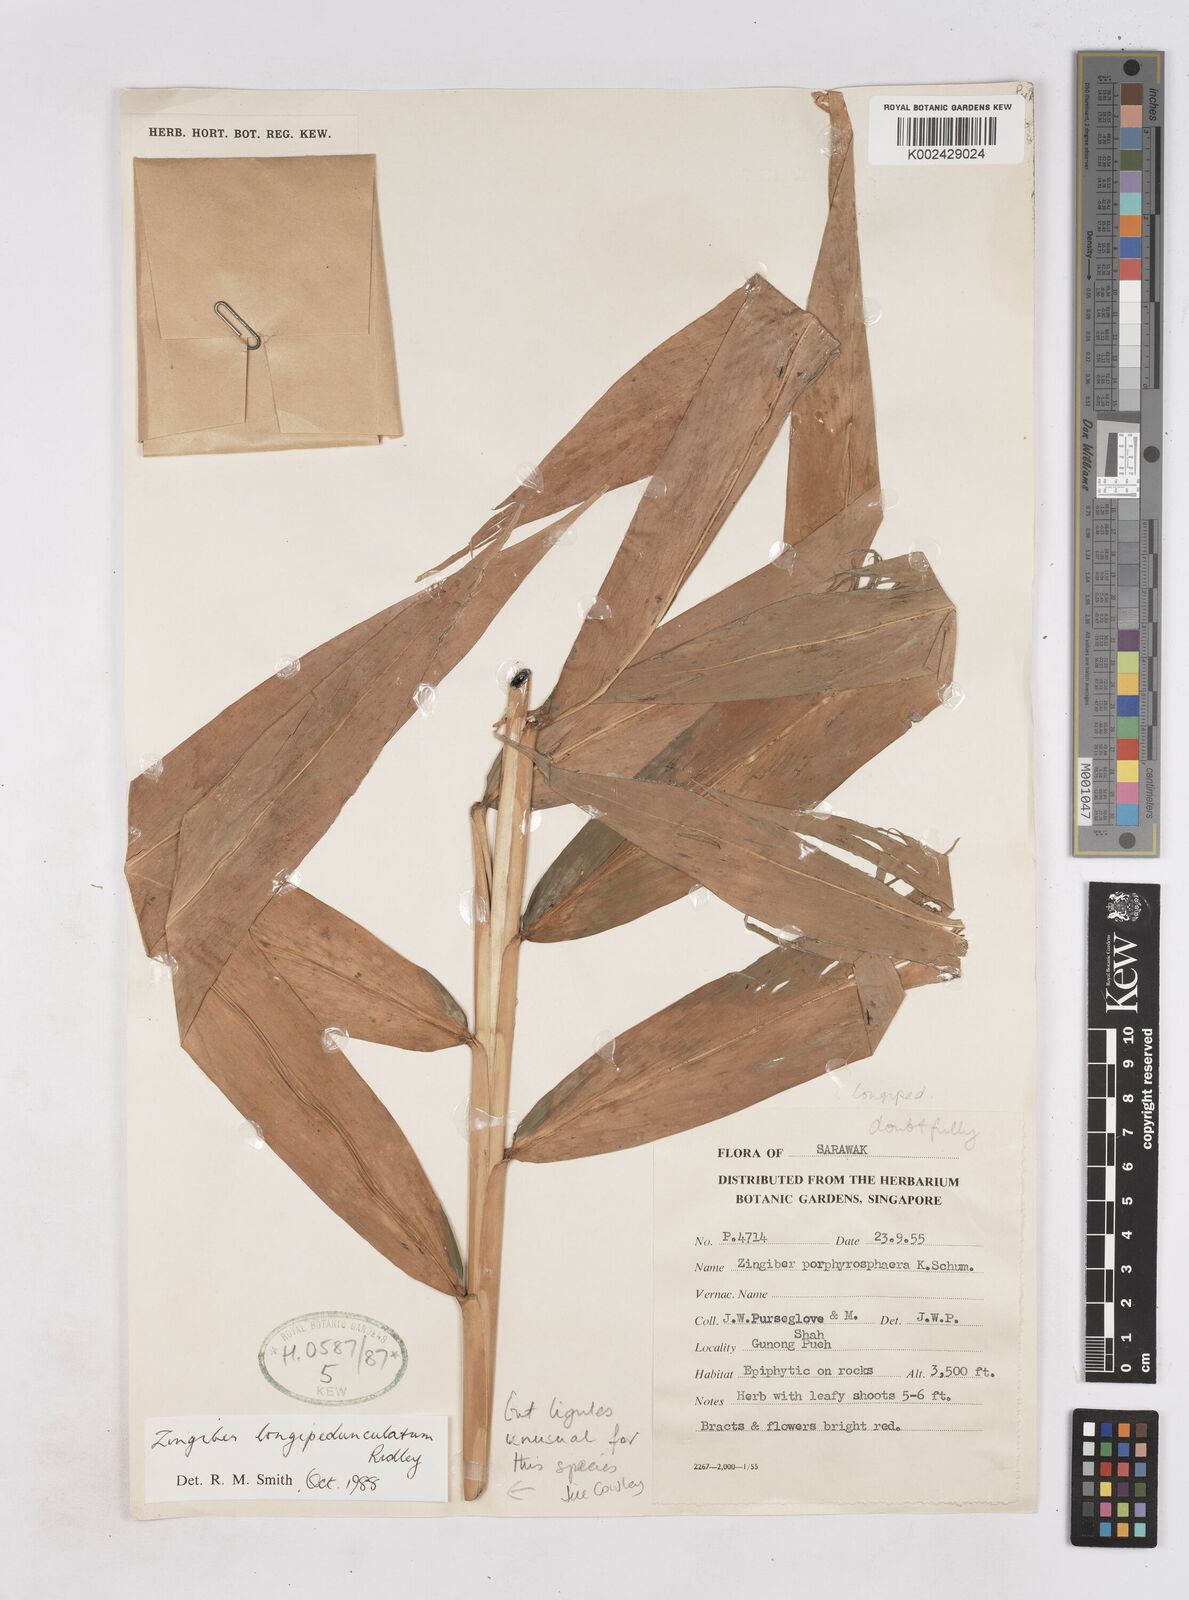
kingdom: Plantae
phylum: Tracheophyta
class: Liliopsida
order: Zingiberales
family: Zingiberaceae
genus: Zingiber
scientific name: Zingiber longipedunculatum
